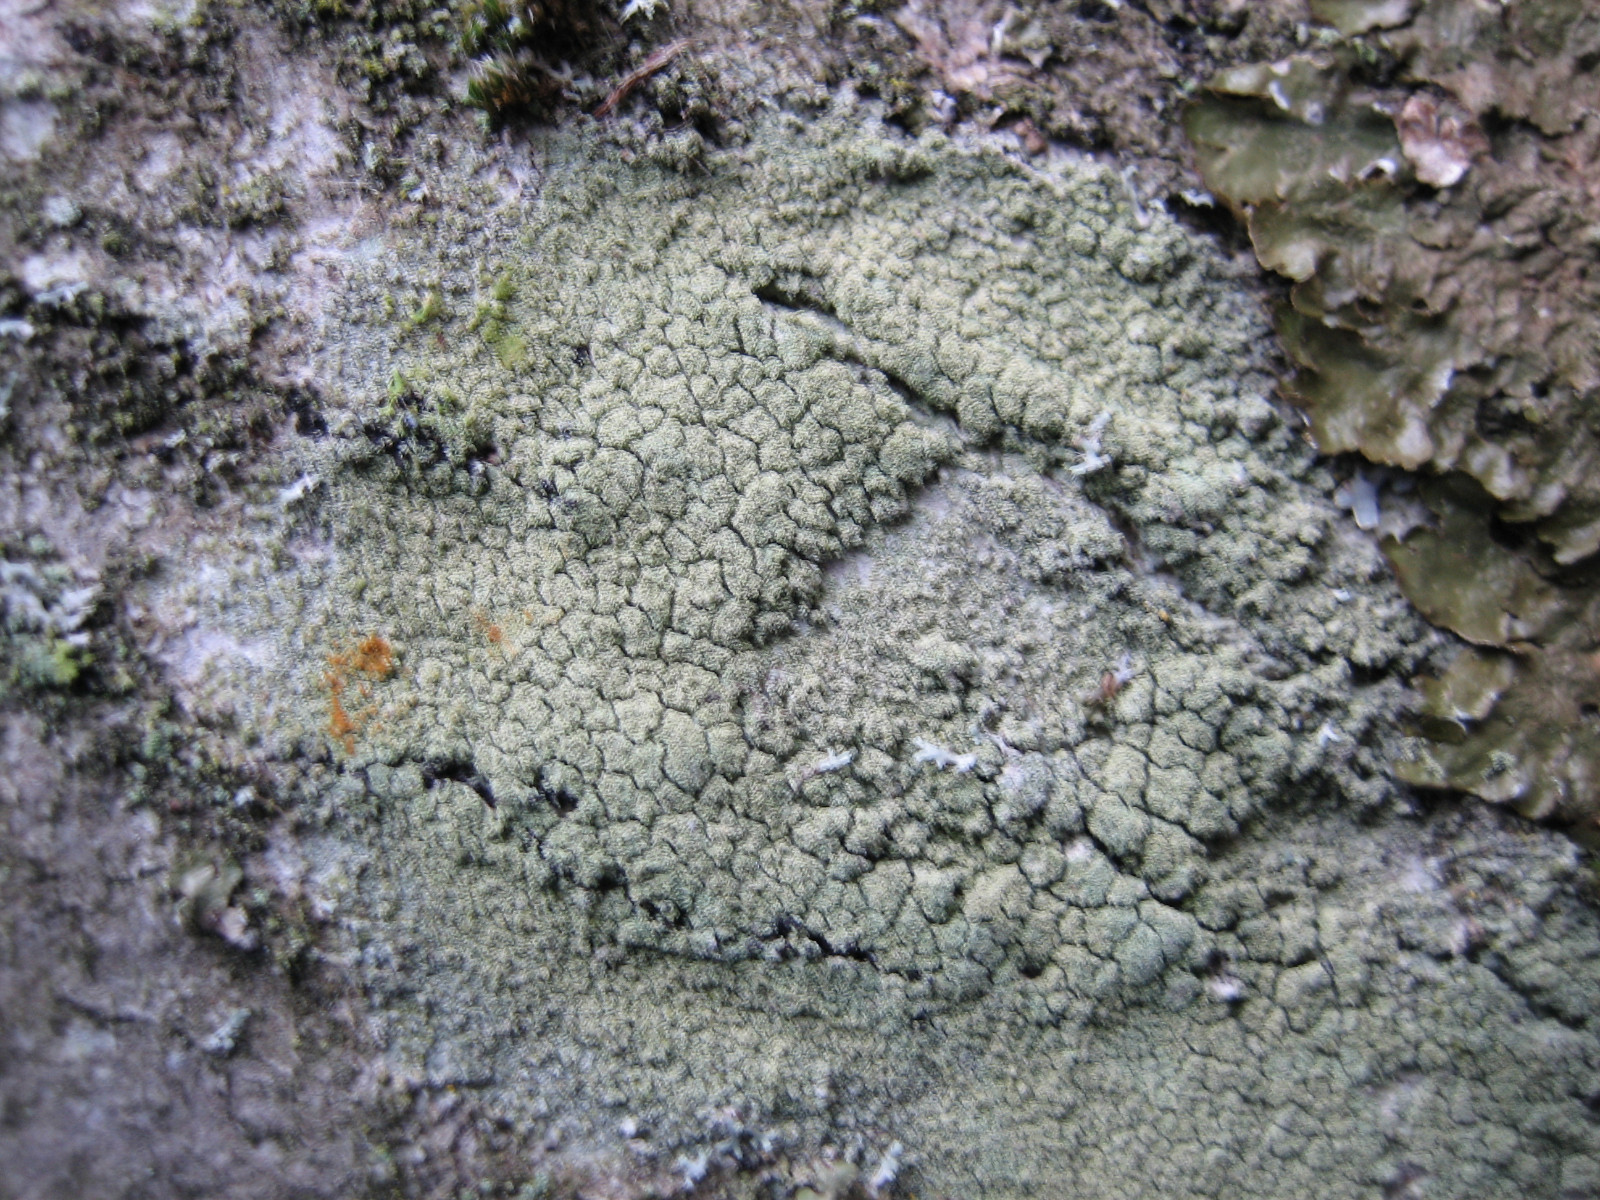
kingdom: Fungi
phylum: Ascomycota
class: Lecanoromycetes
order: Lecanorales
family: Lecanoraceae
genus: Pyrrhospora
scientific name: Pyrrhospora quernea
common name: almindelig rødskivelav
